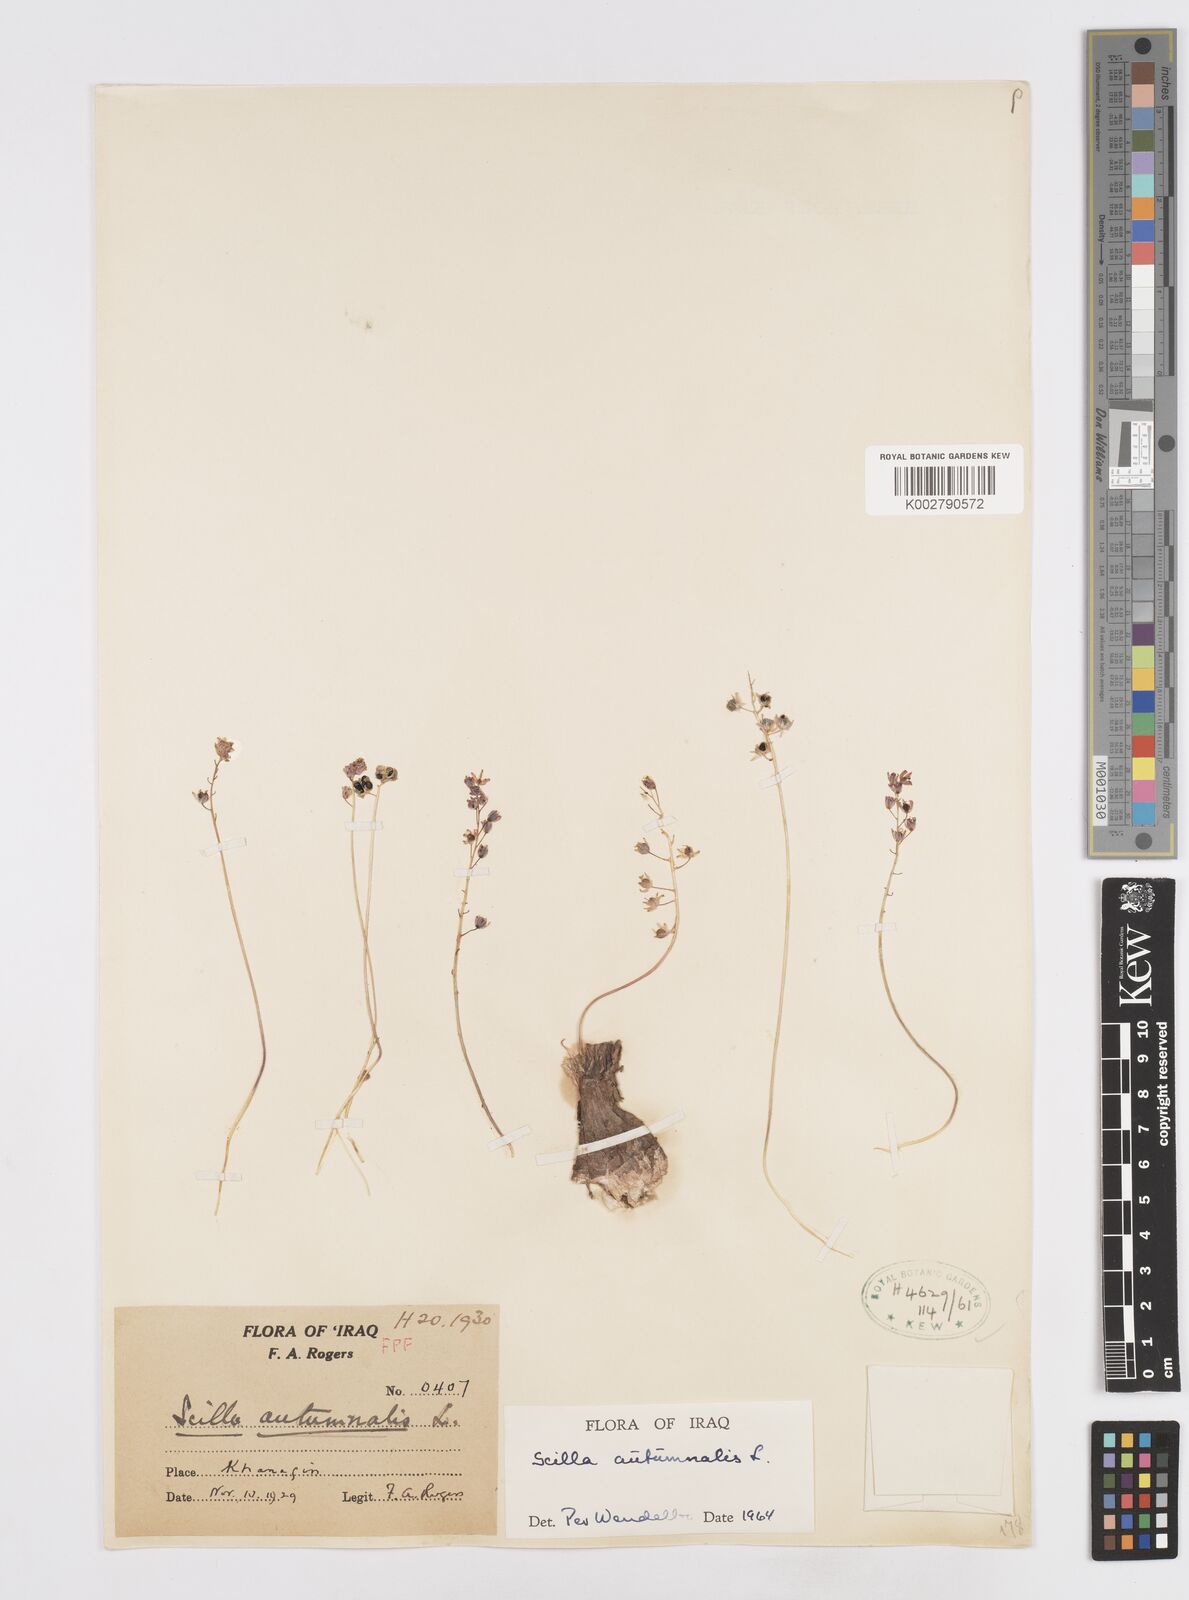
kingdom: Plantae
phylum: Tracheophyta
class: Liliopsida
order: Asparagales
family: Asparagaceae
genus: Prospero
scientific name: Prospero autumnale
